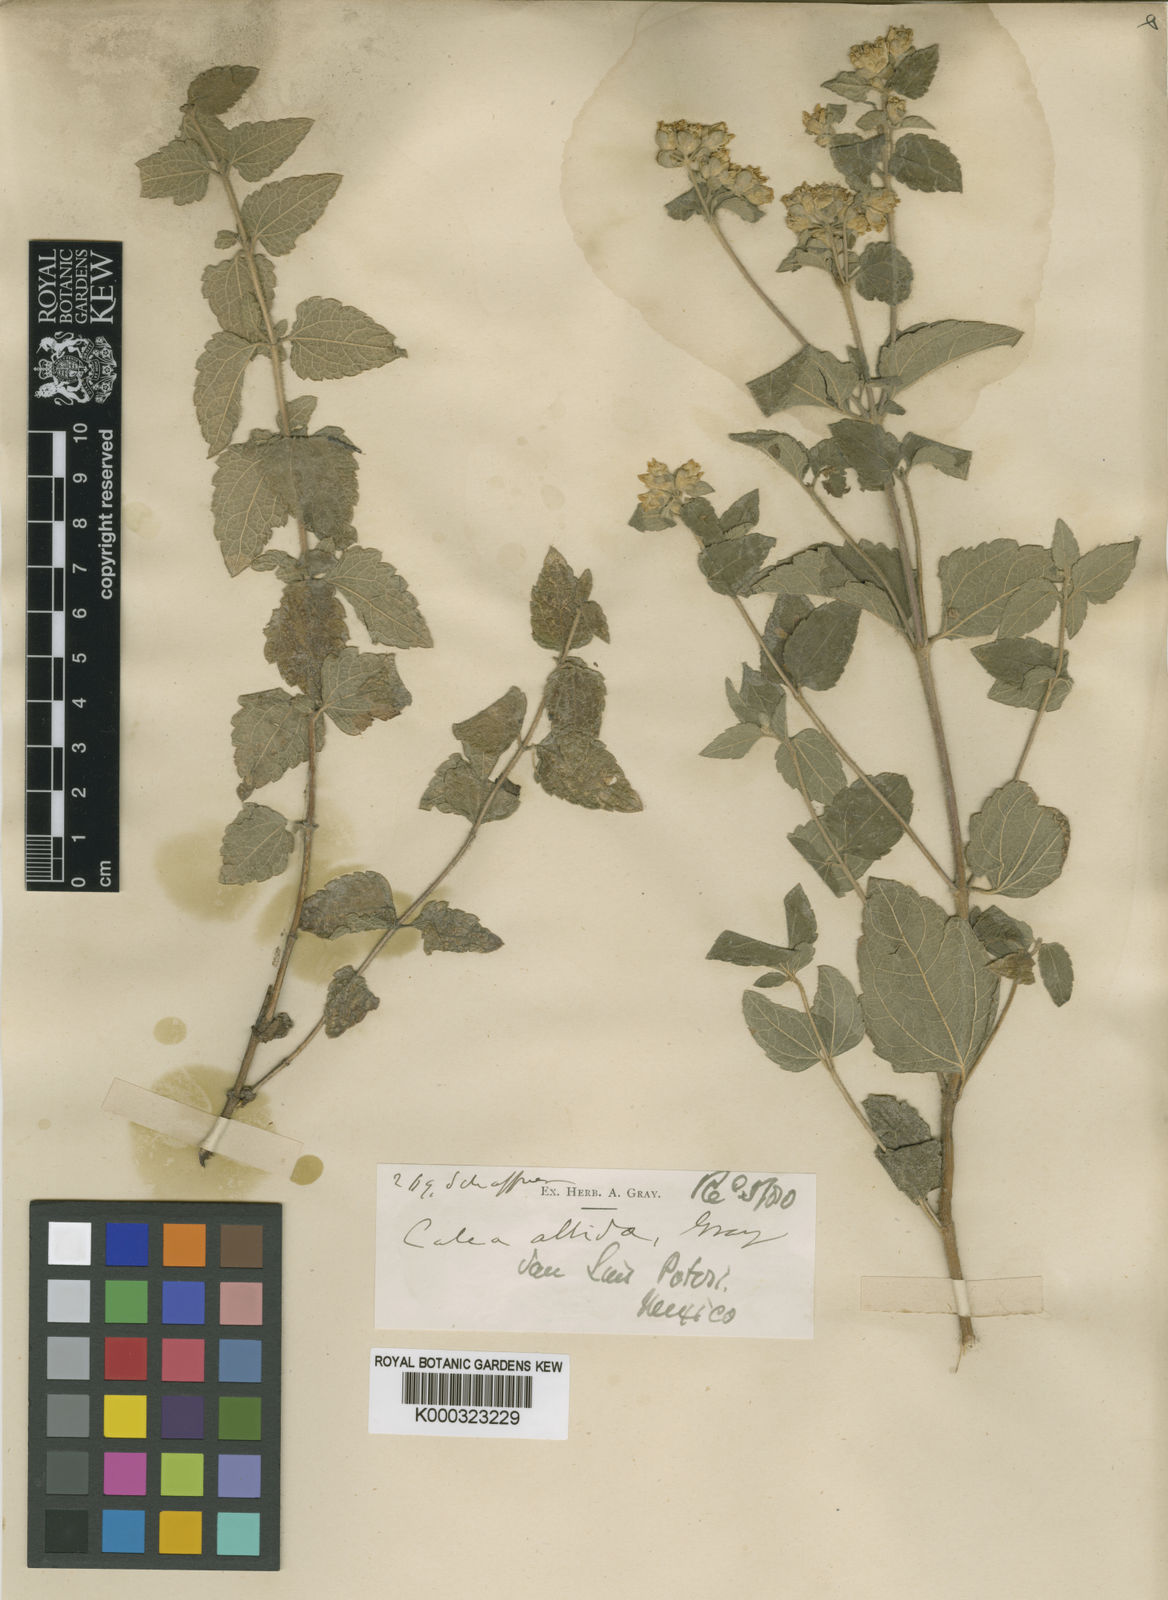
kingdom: Plantae
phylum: Tracheophyta
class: Magnoliopsida
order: Asterales
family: Asteraceae
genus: Calea
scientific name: Calea ternifolia
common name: Mexican calea
